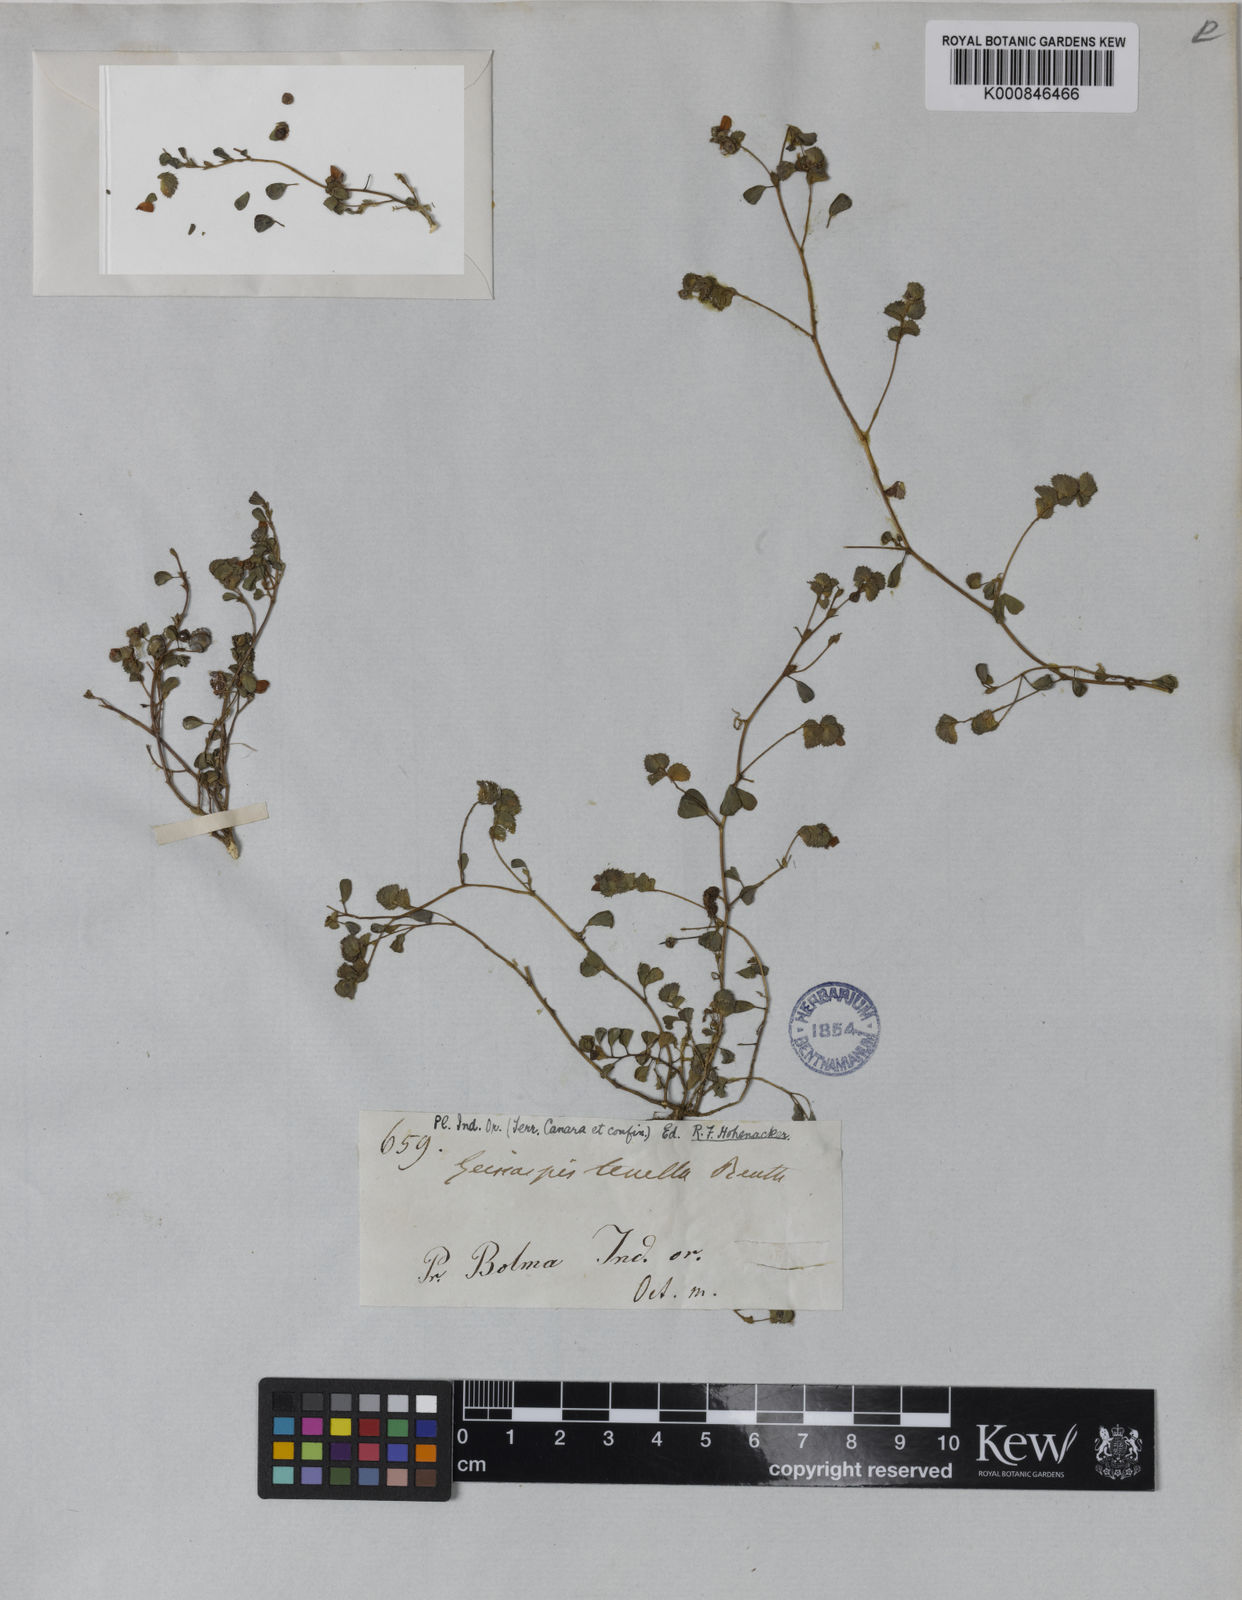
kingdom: Plantae
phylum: Tracheophyta
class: Magnoliopsida
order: Fabales
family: Fabaceae
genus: Geissaspis
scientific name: Geissaspis cristata
